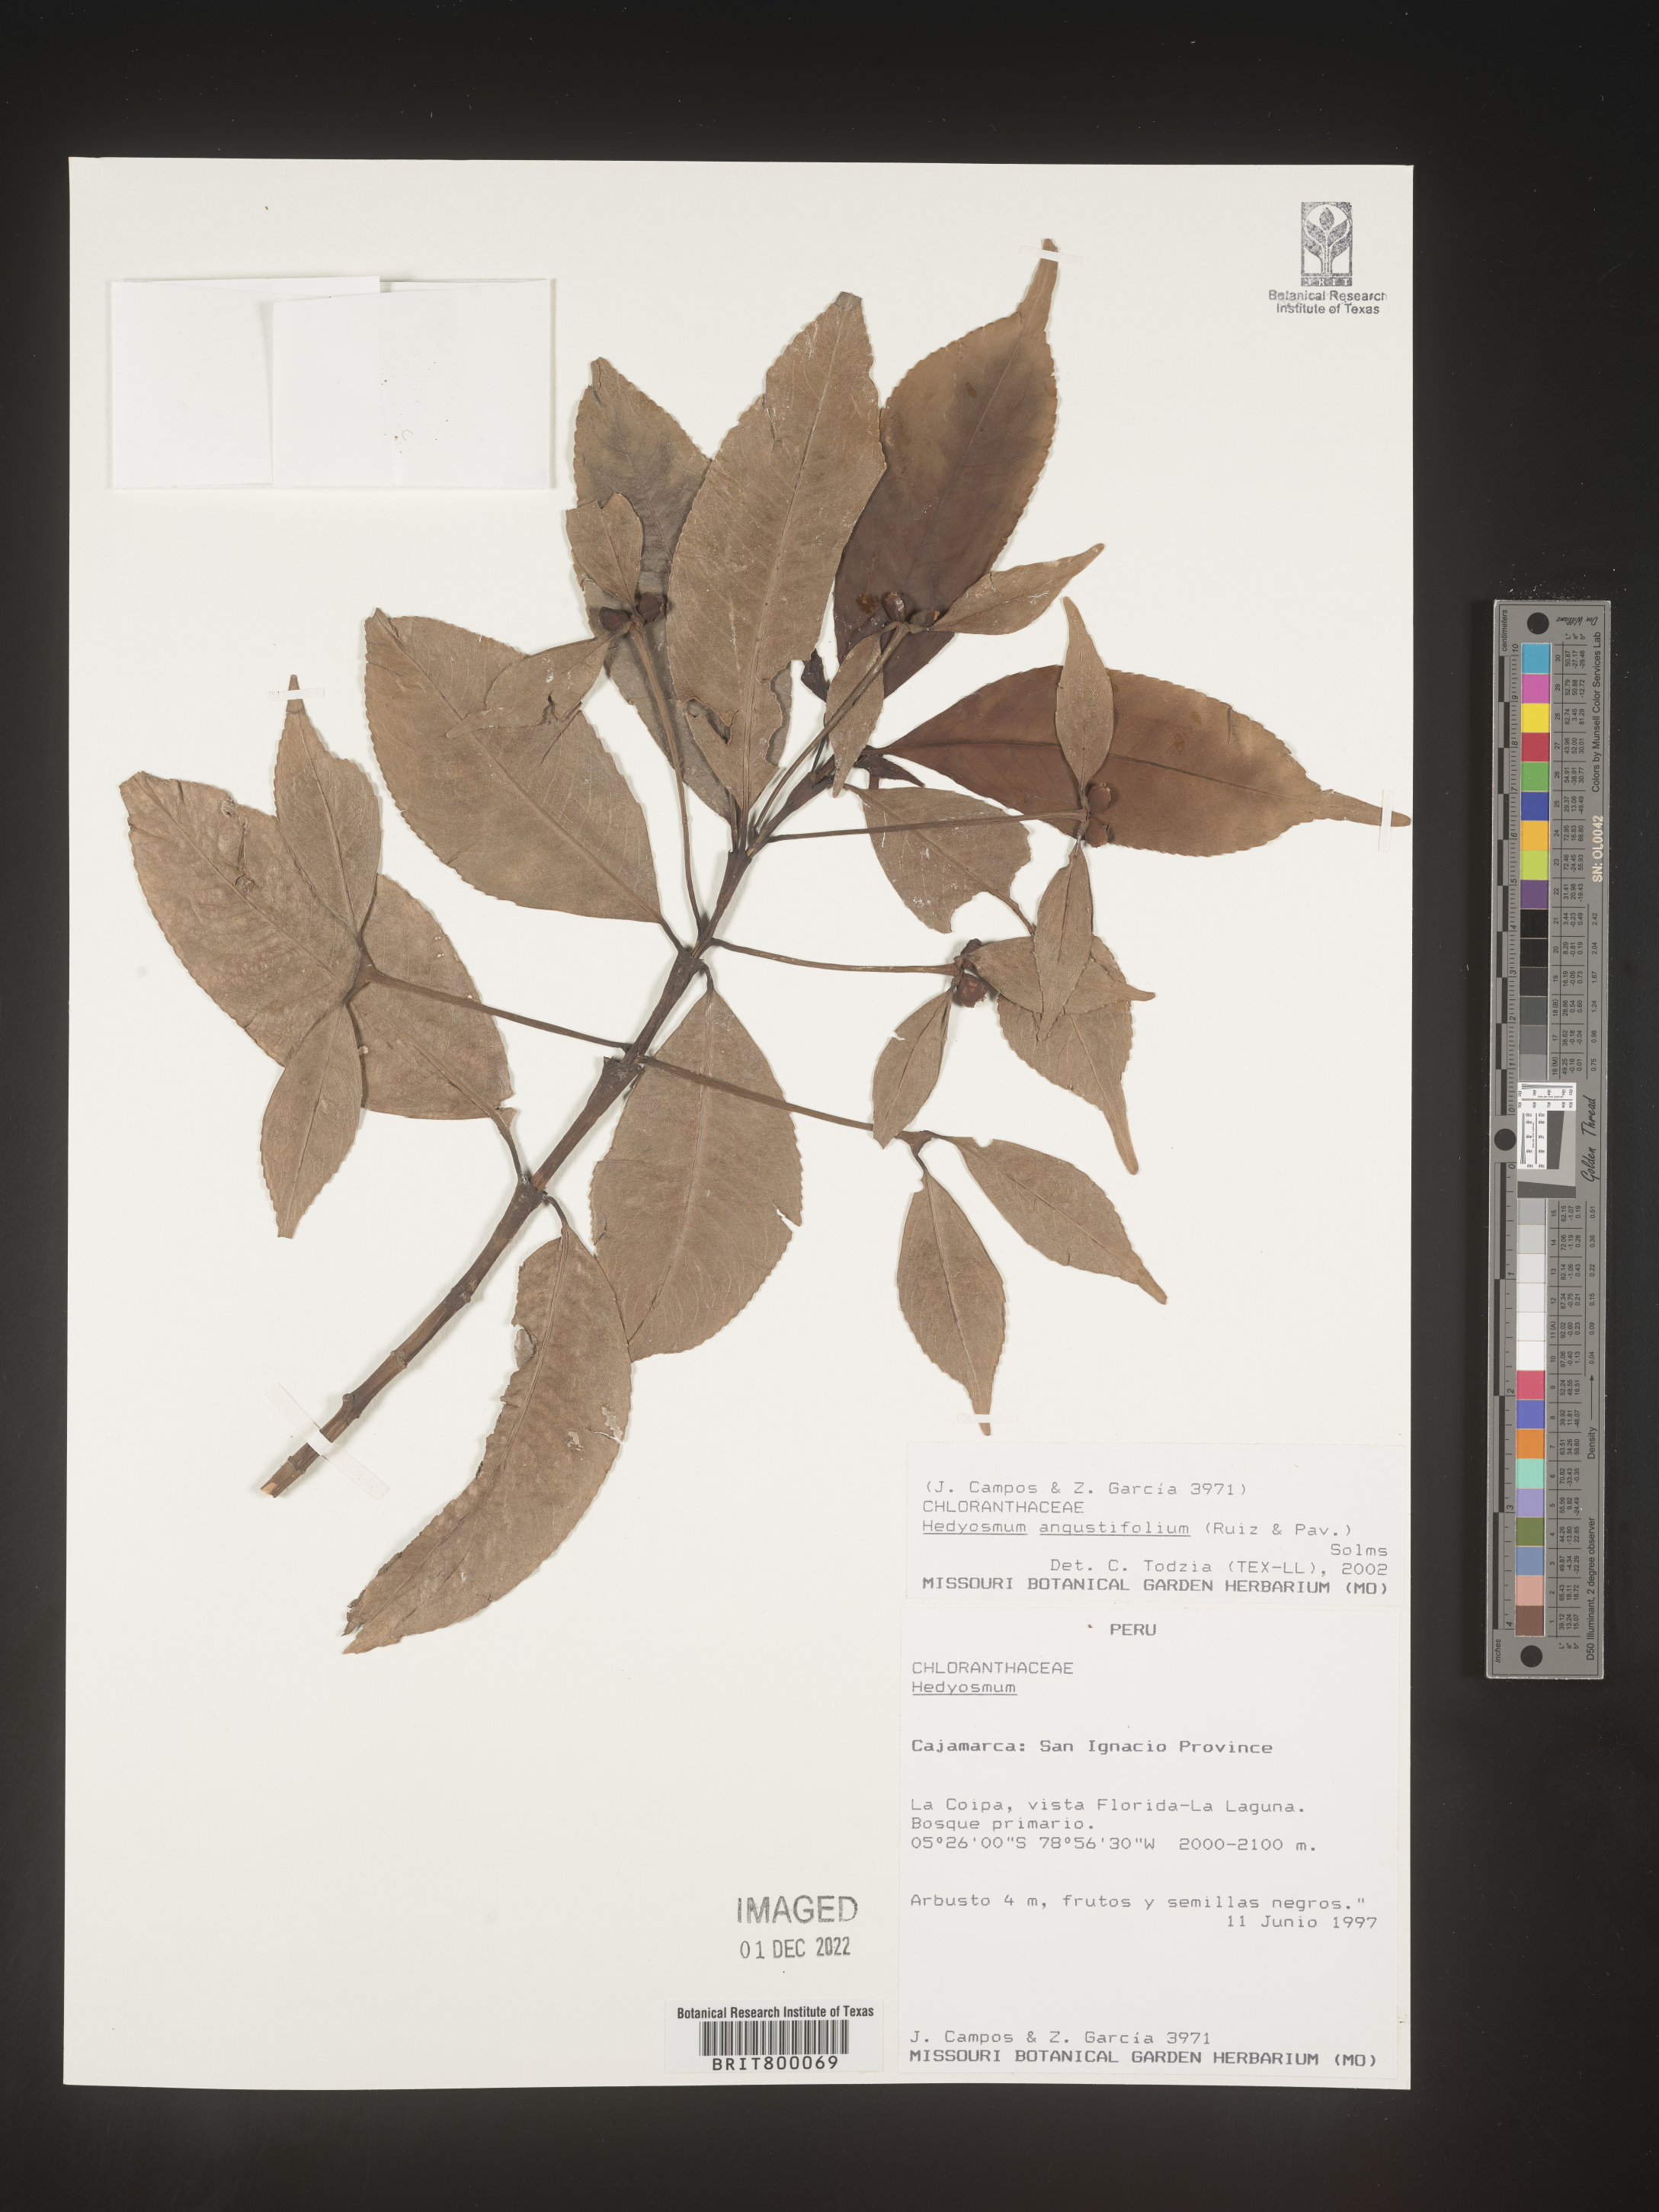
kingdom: Plantae
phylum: Tracheophyta
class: Magnoliopsida
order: Chloranthales
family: Chloranthaceae
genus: Hedyosmum
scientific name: Hedyosmum
